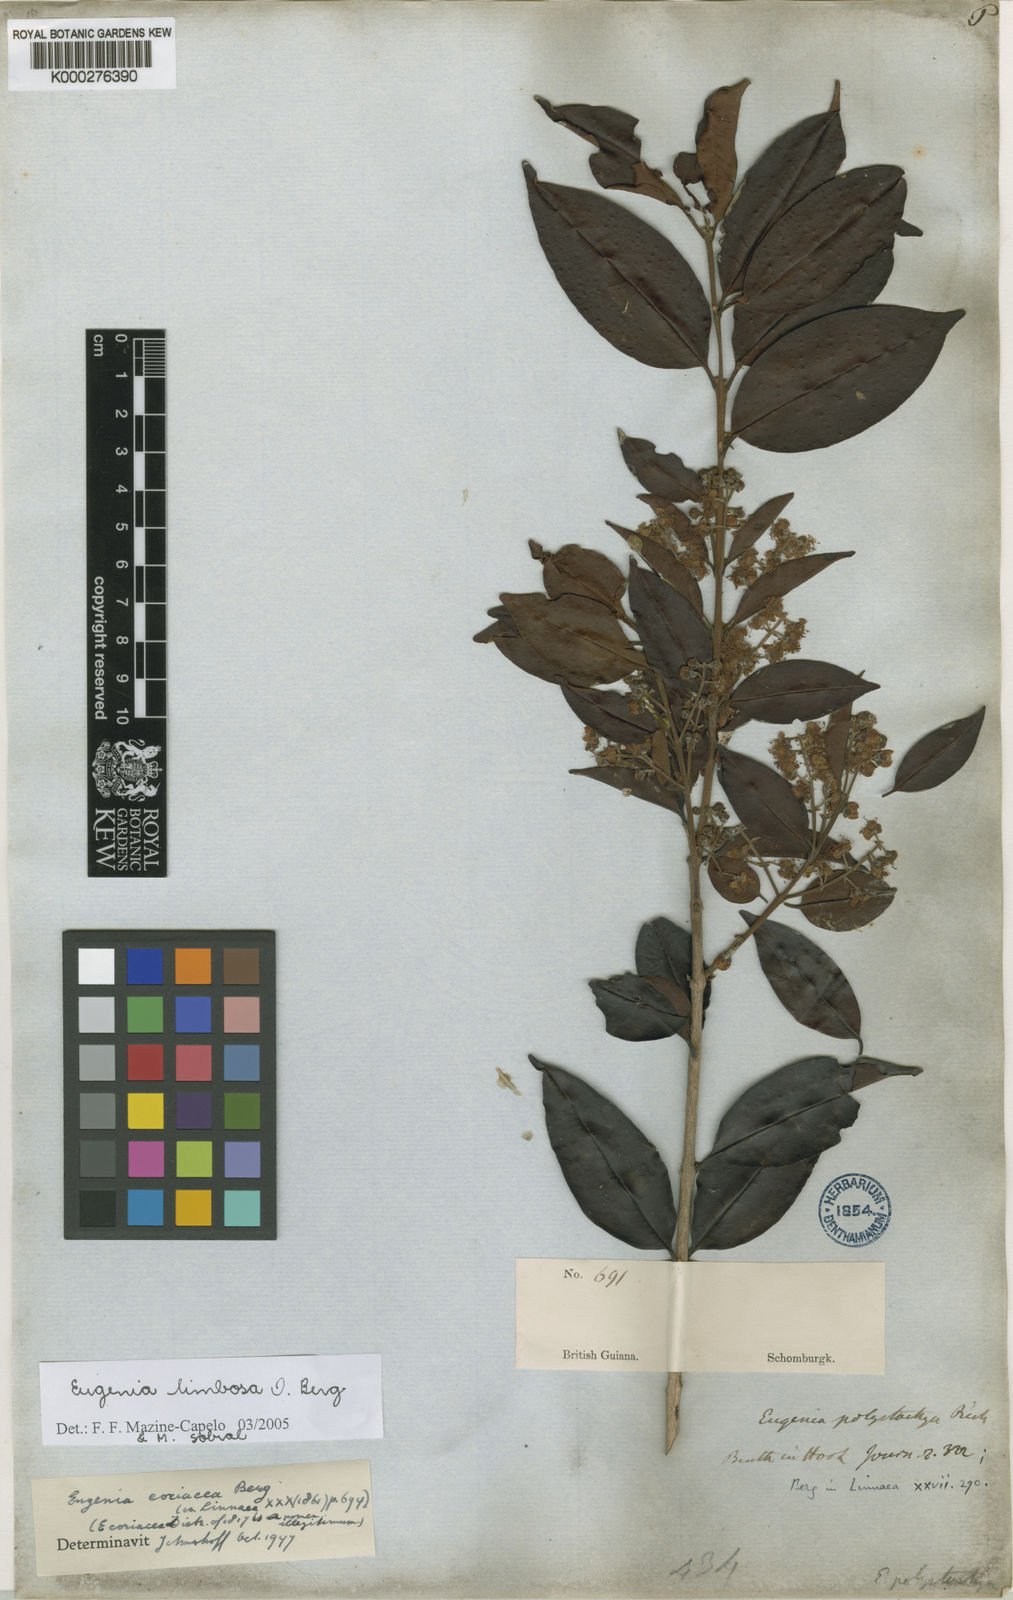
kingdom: Plantae
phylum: Tracheophyta
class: Magnoliopsida
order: Myrtales
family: Myrtaceae
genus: Eugenia
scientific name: Eugenia limbosa
